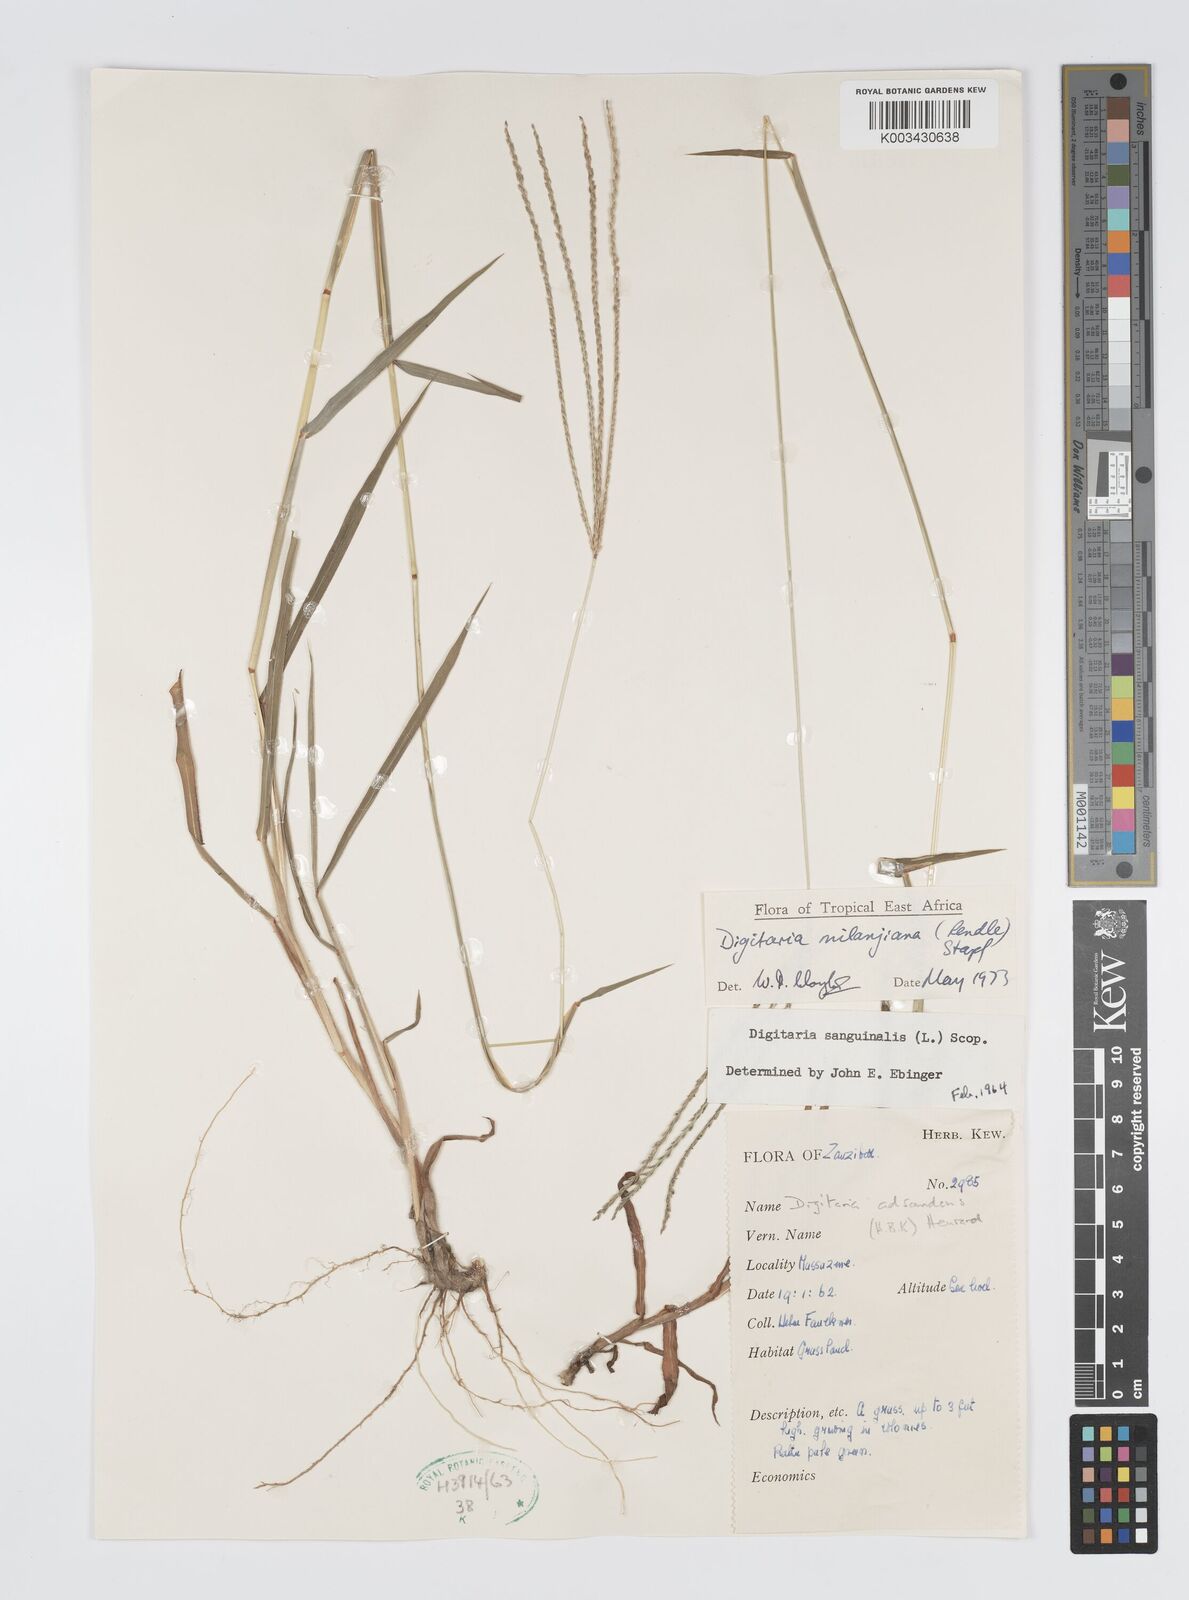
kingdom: Plantae
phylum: Tracheophyta
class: Liliopsida
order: Poales
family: Poaceae
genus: Digitaria
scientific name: Digitaria milanjiana
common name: Madagascar crabgrass
